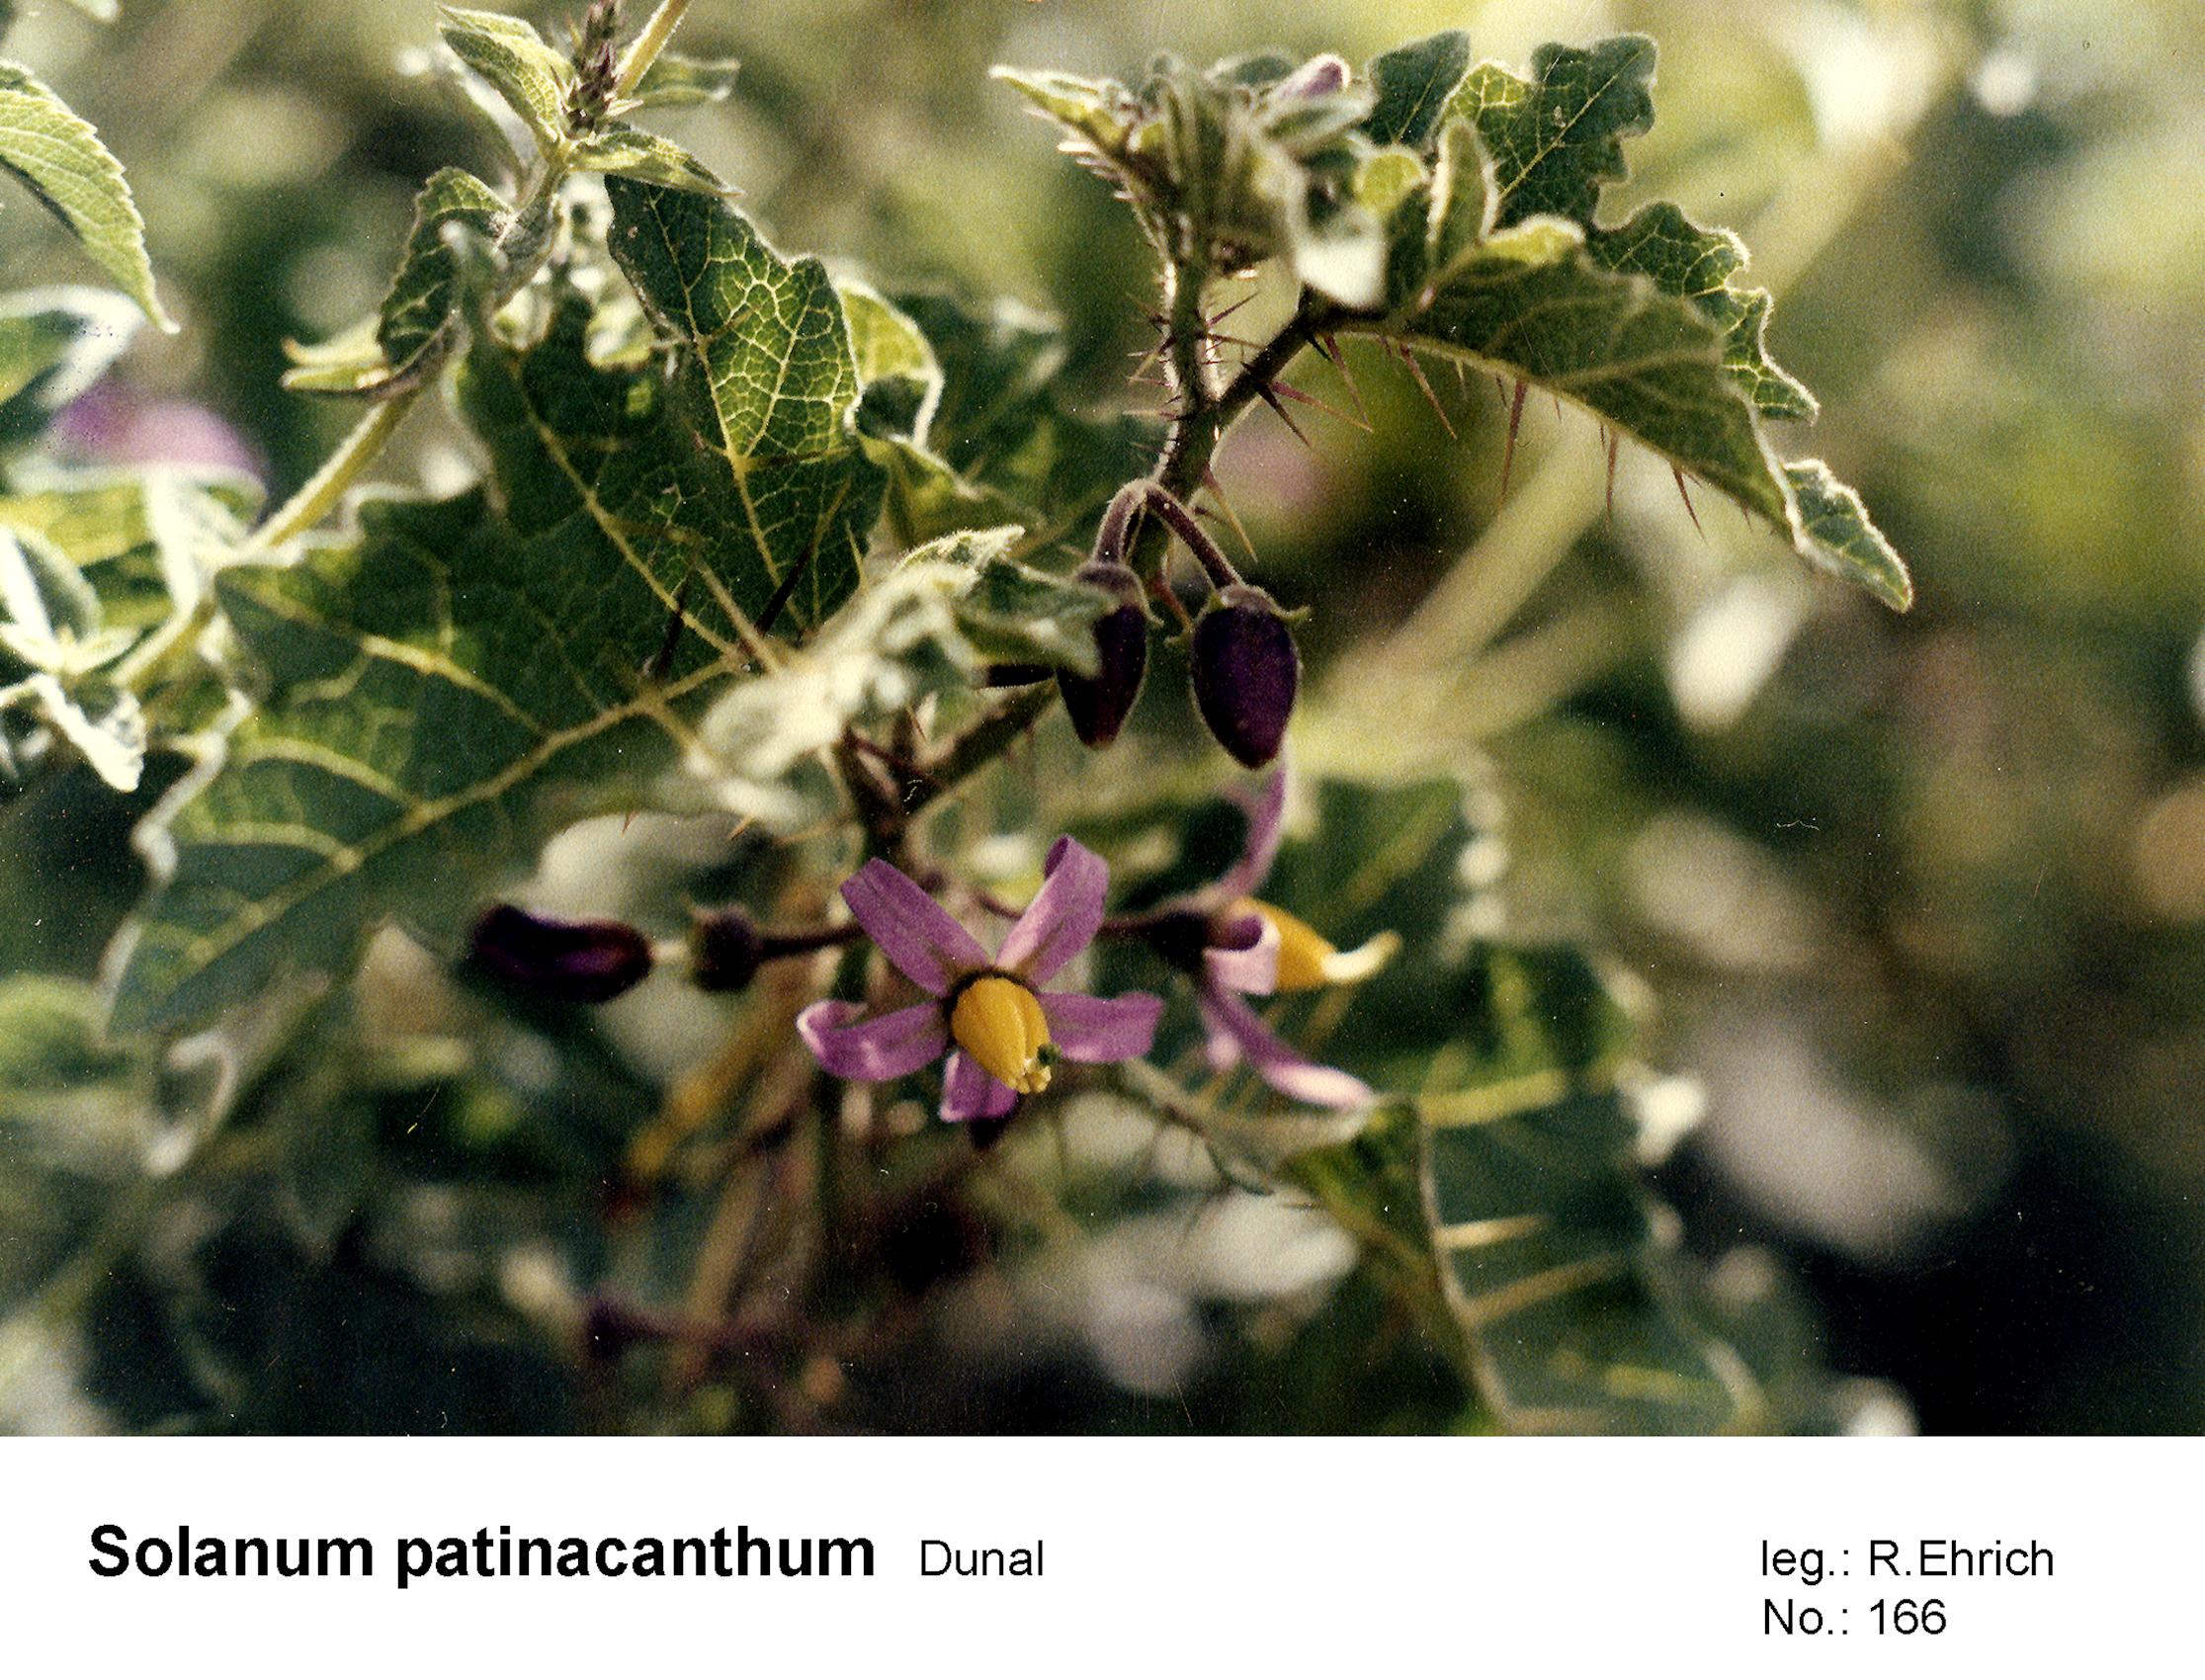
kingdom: Plantae
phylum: Tracheophyta
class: Magnoliopsida
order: Solanales
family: Solanaceae
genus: Solanum
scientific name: Solanum palinacanthum
